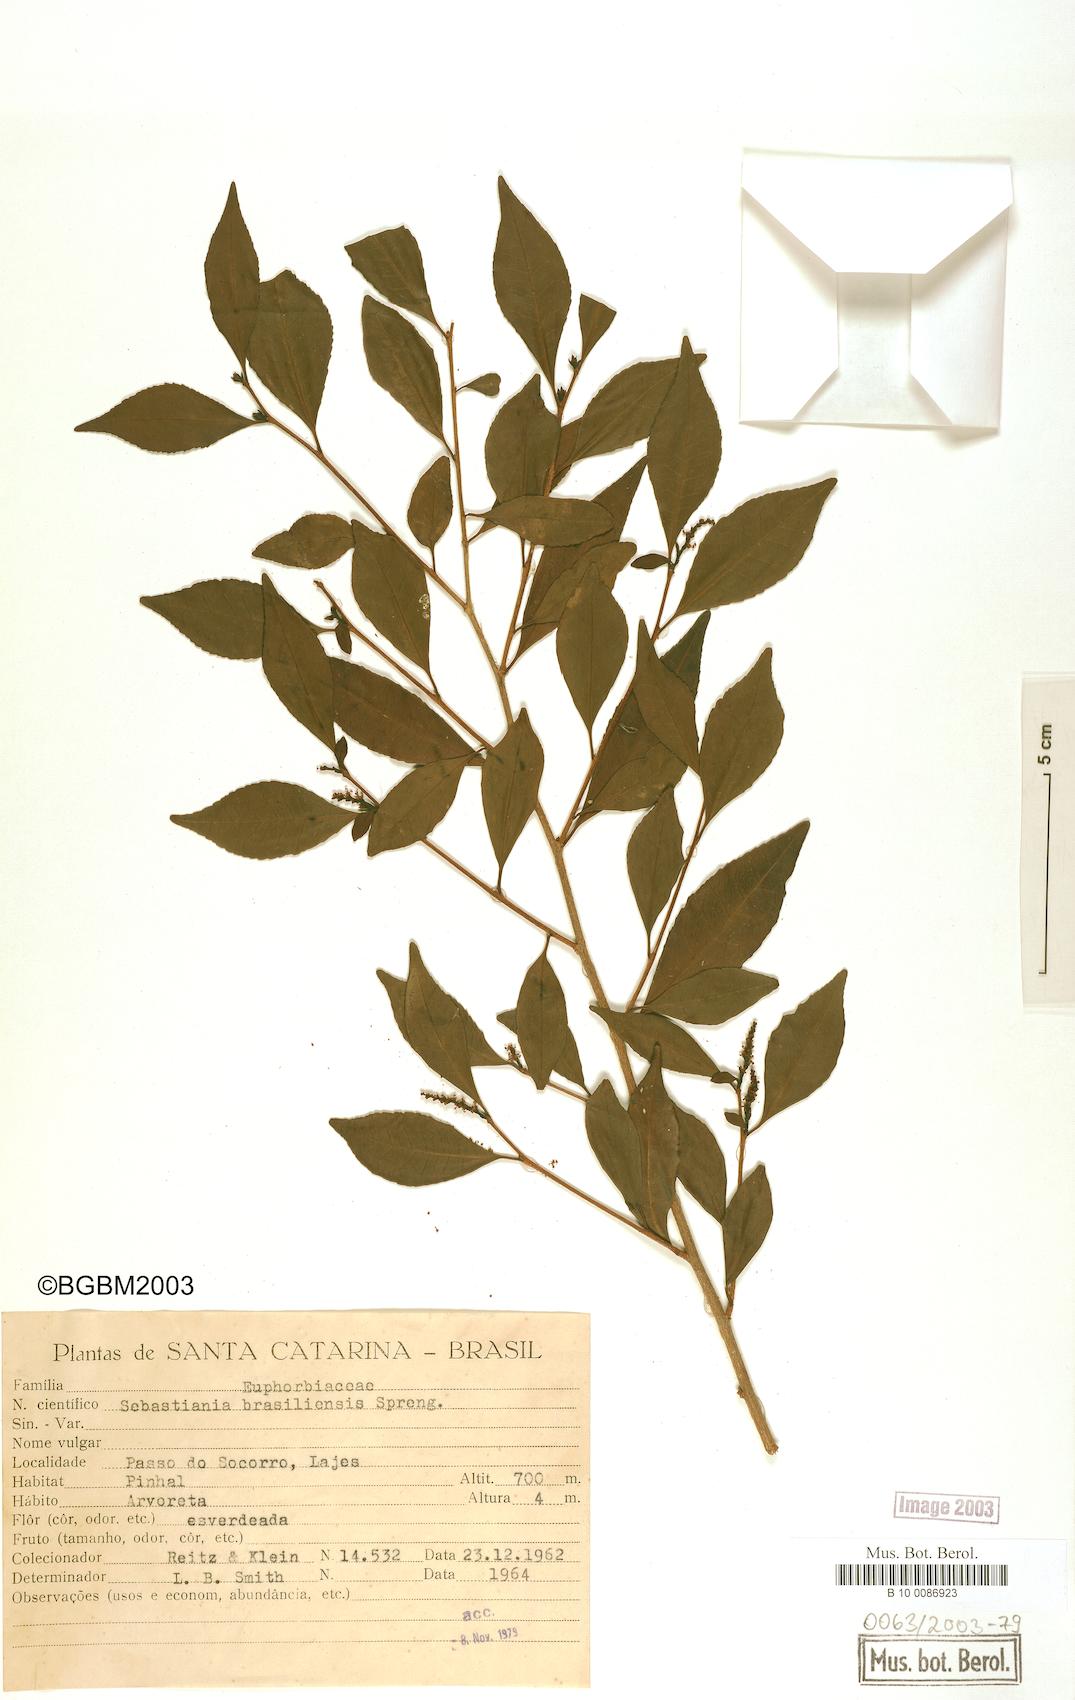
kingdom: Plantae
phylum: Tracheophyta
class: Magnoliopsida
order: Malpighiales
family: Euphorbiaceae
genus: Sebastiania
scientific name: Sebastiania brasiliensis
